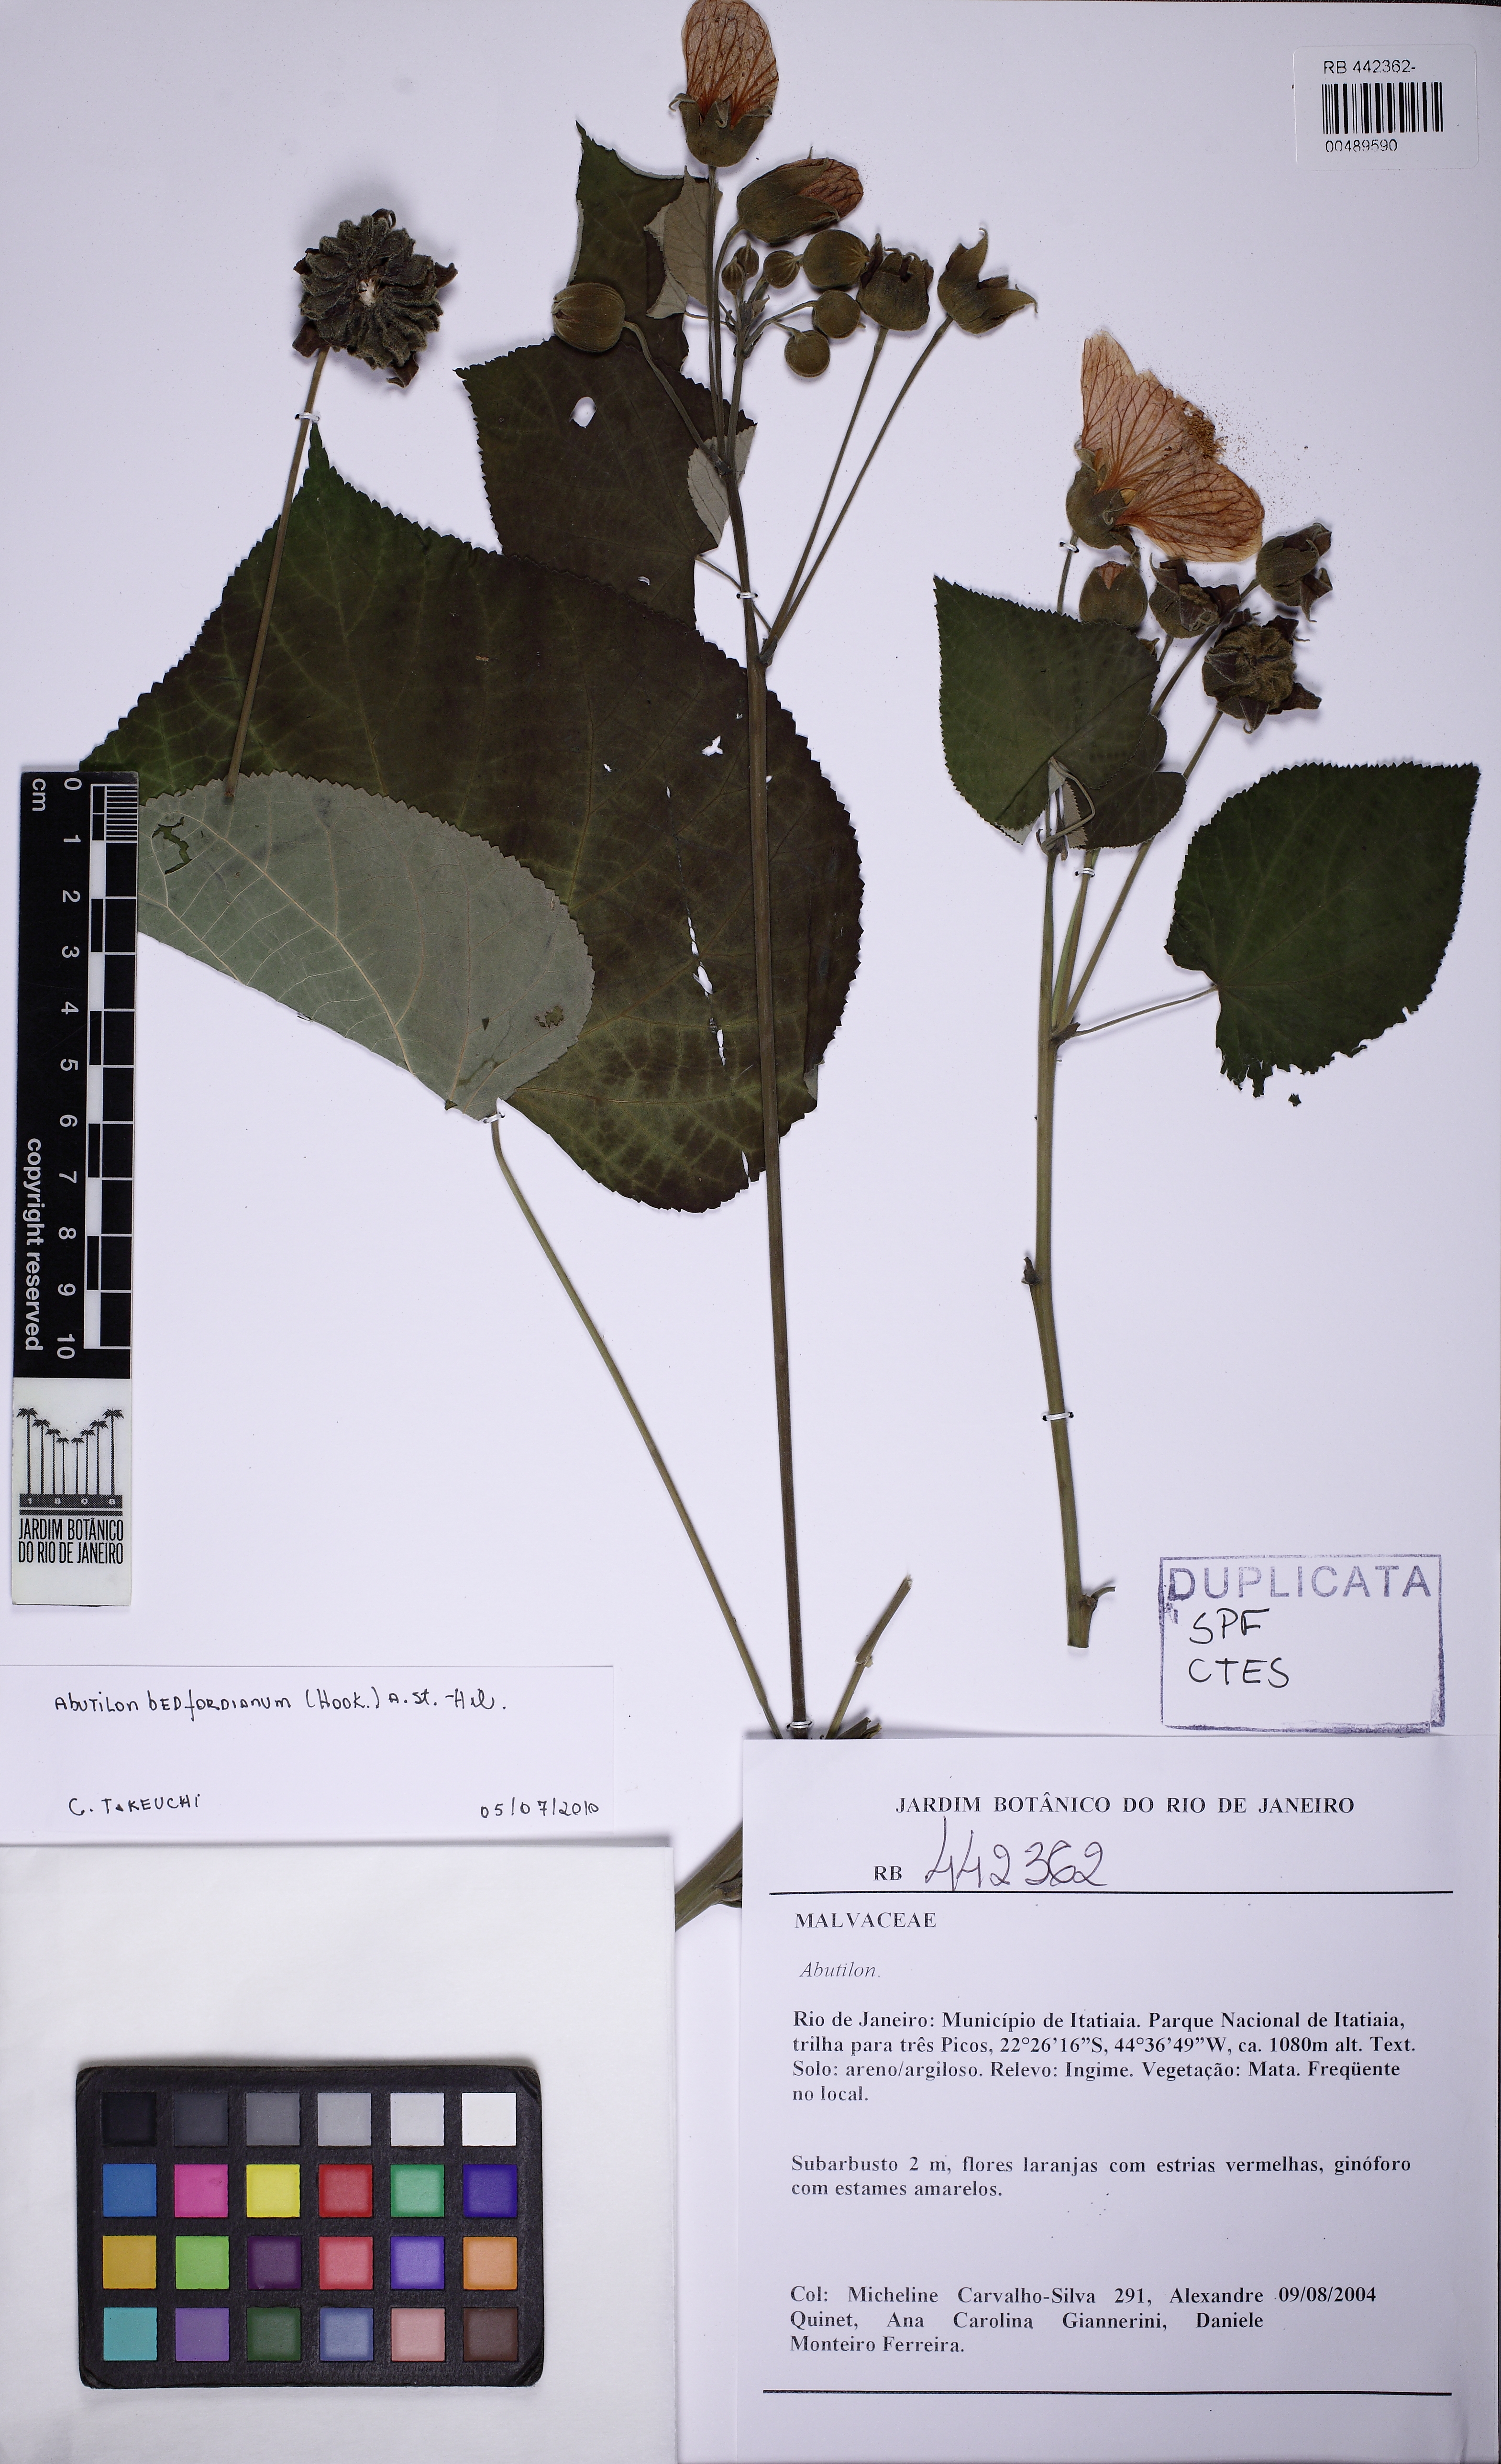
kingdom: Plantae
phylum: Tracheophyta
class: Magnoliopsida
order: Malvales
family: Malvaceae
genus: Callianthe
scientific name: Callianthe bedfordiana
